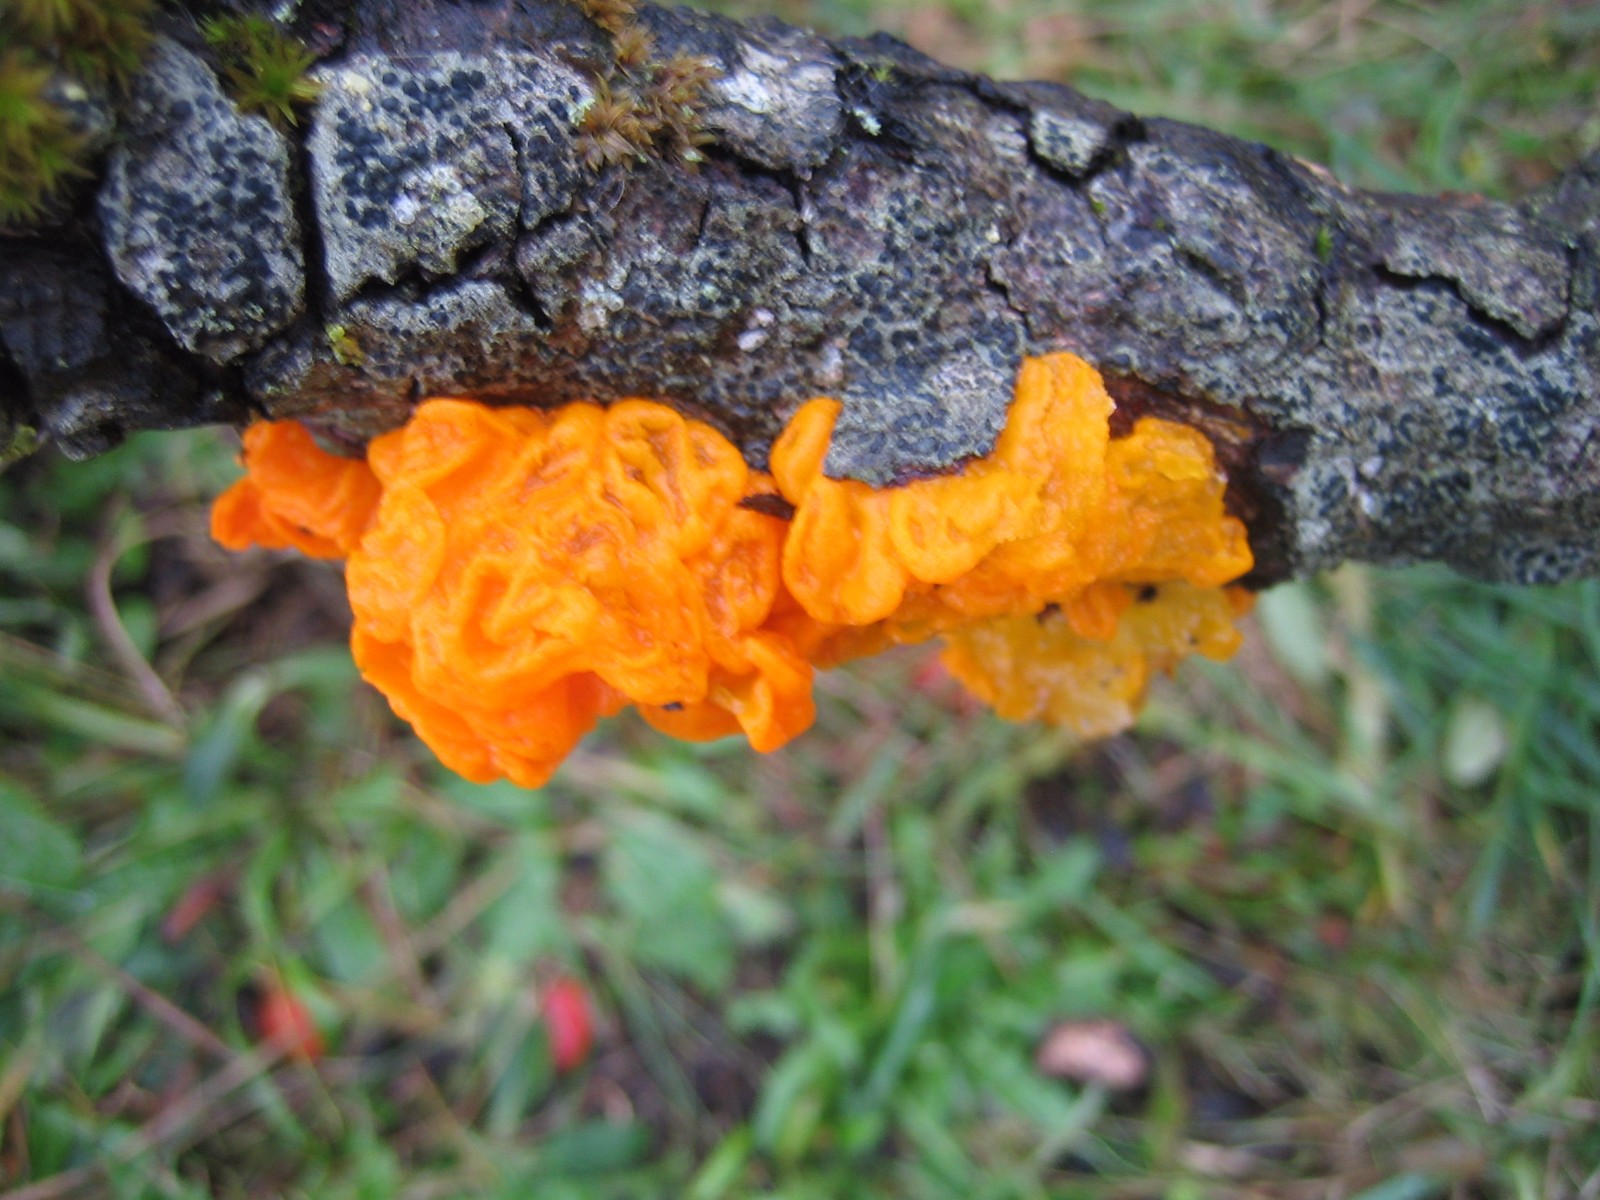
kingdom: Fungi
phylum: Basidiomycota
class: Tremellomycetes
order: Tremellales
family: Tremellaceae
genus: Tremella
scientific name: Tremella mesenterica
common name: gul bævresvamp
